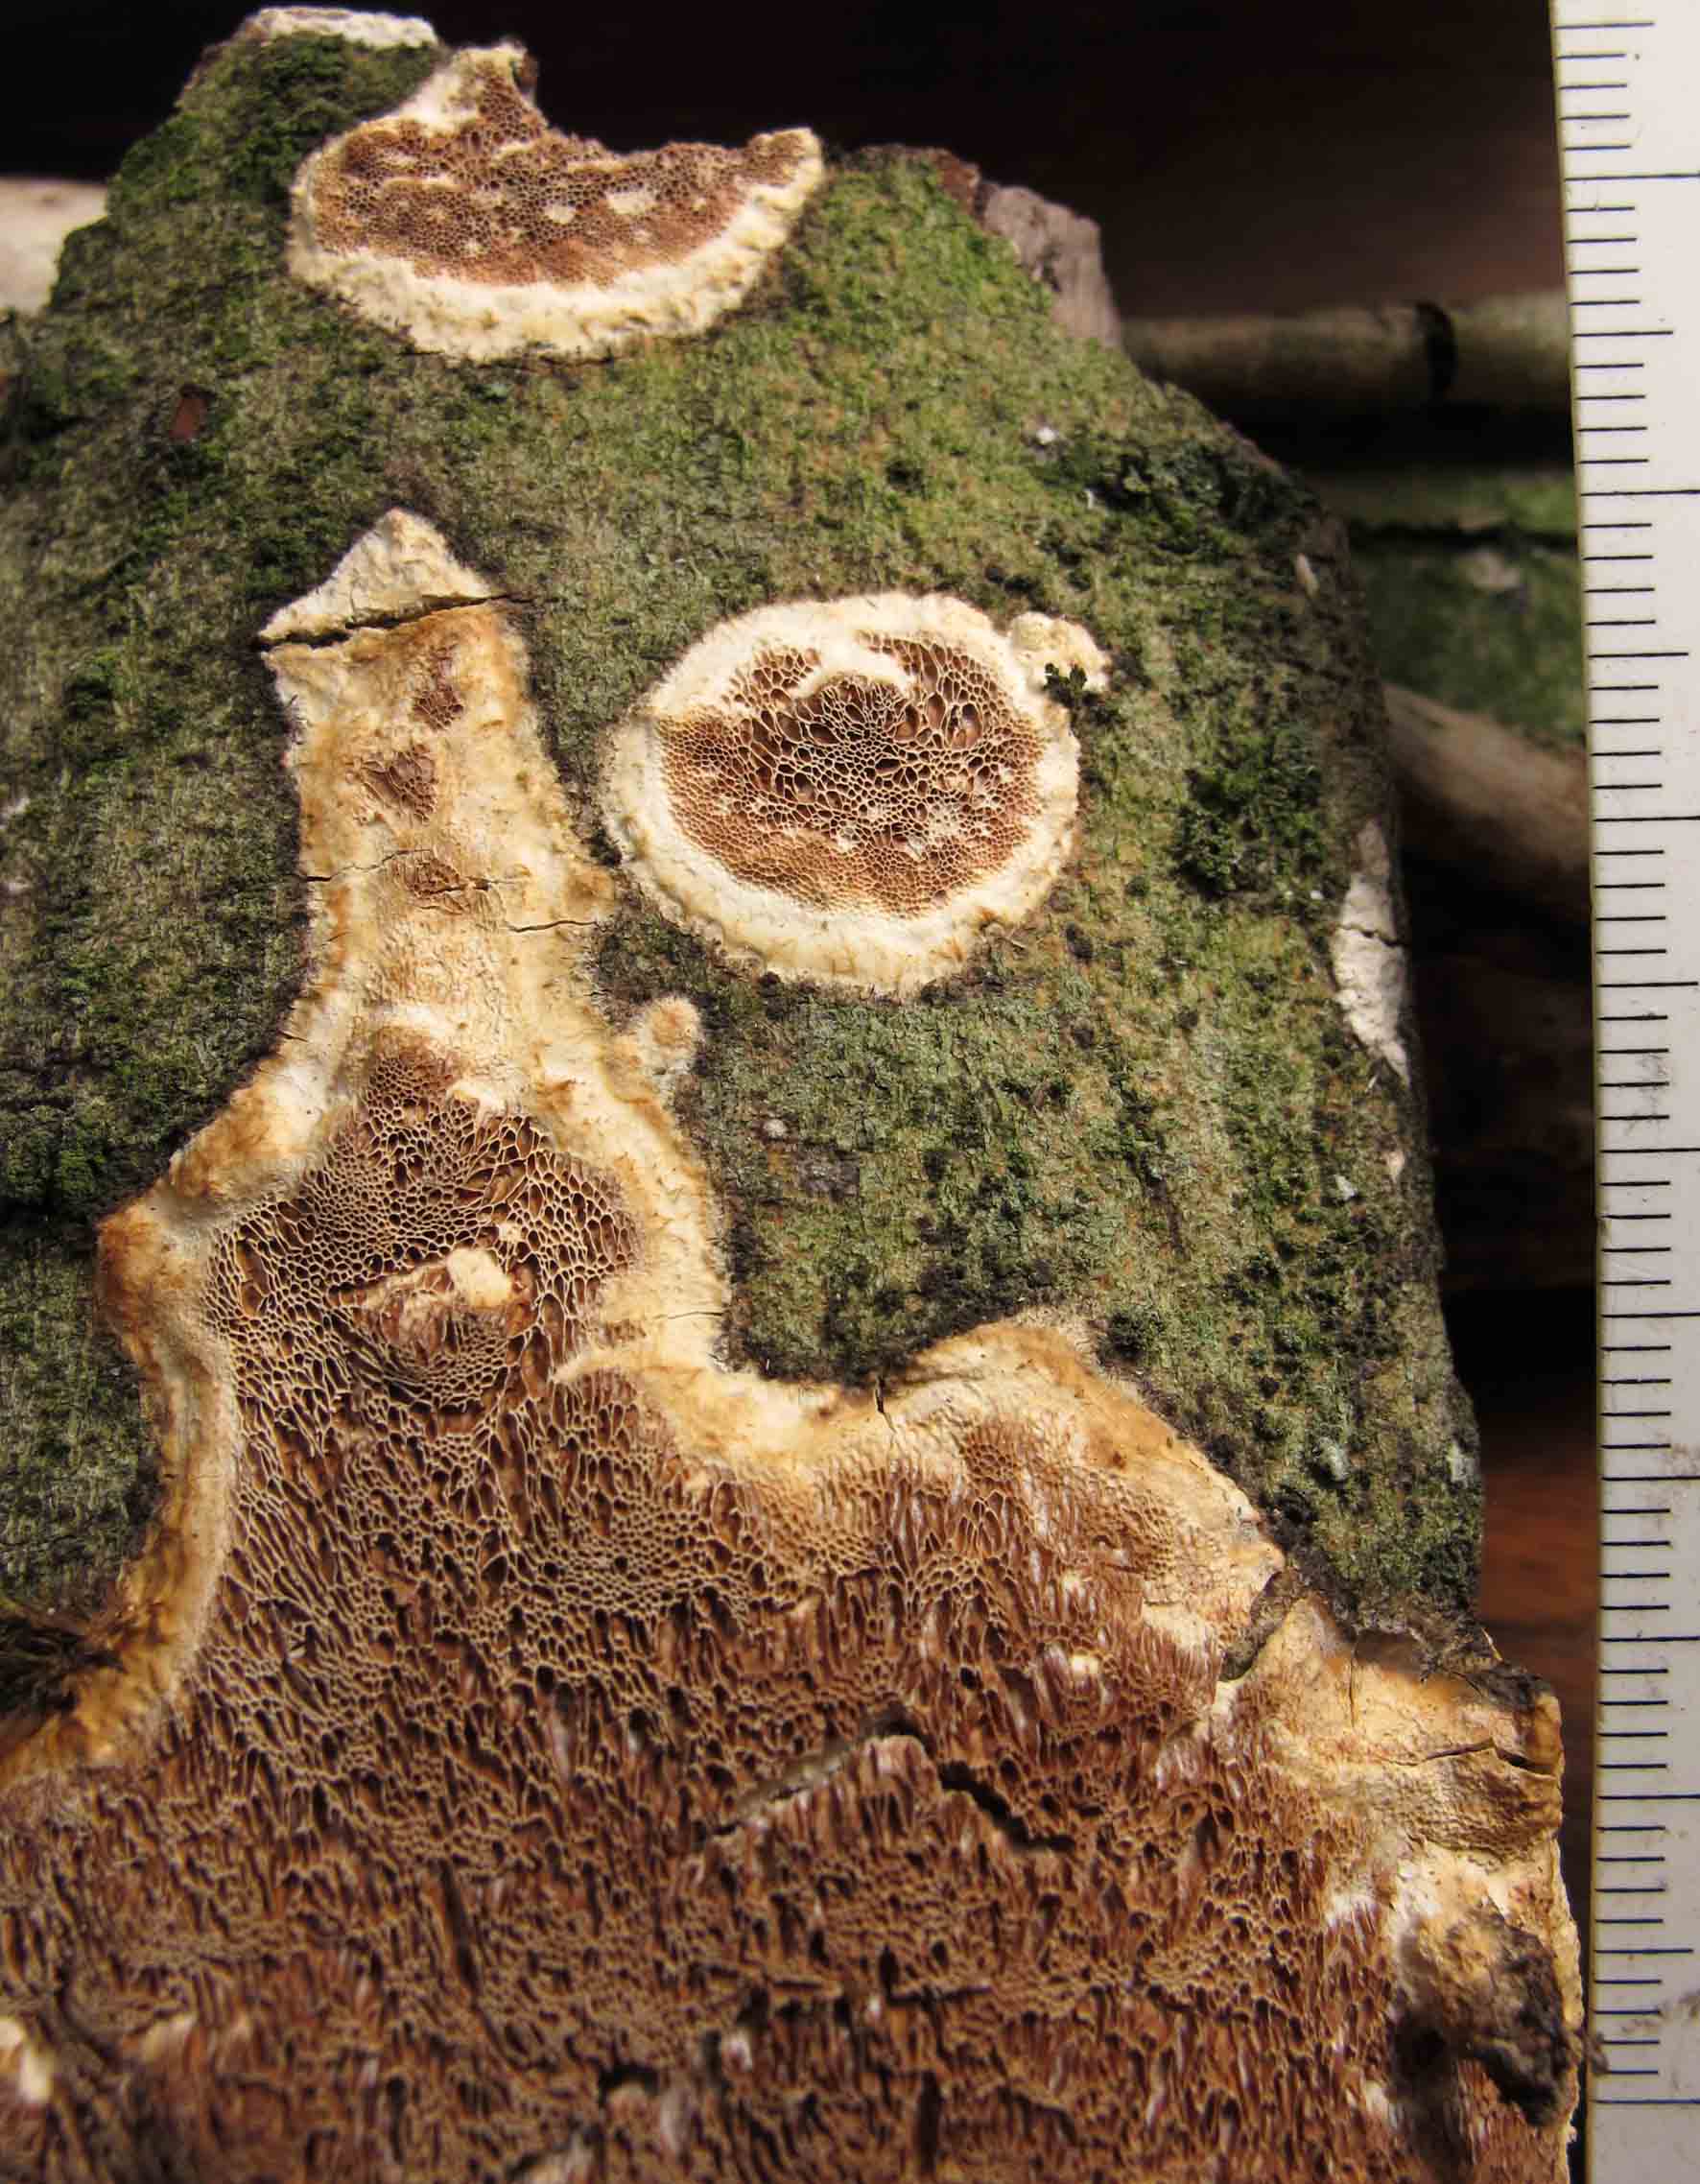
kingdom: Fungi
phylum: Basidiomycota
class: Agaricomycetes
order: Polyporales
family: Irpicaceae
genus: Resiniporus
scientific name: Resiniporus resinascens
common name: trist pastelporesvamp
